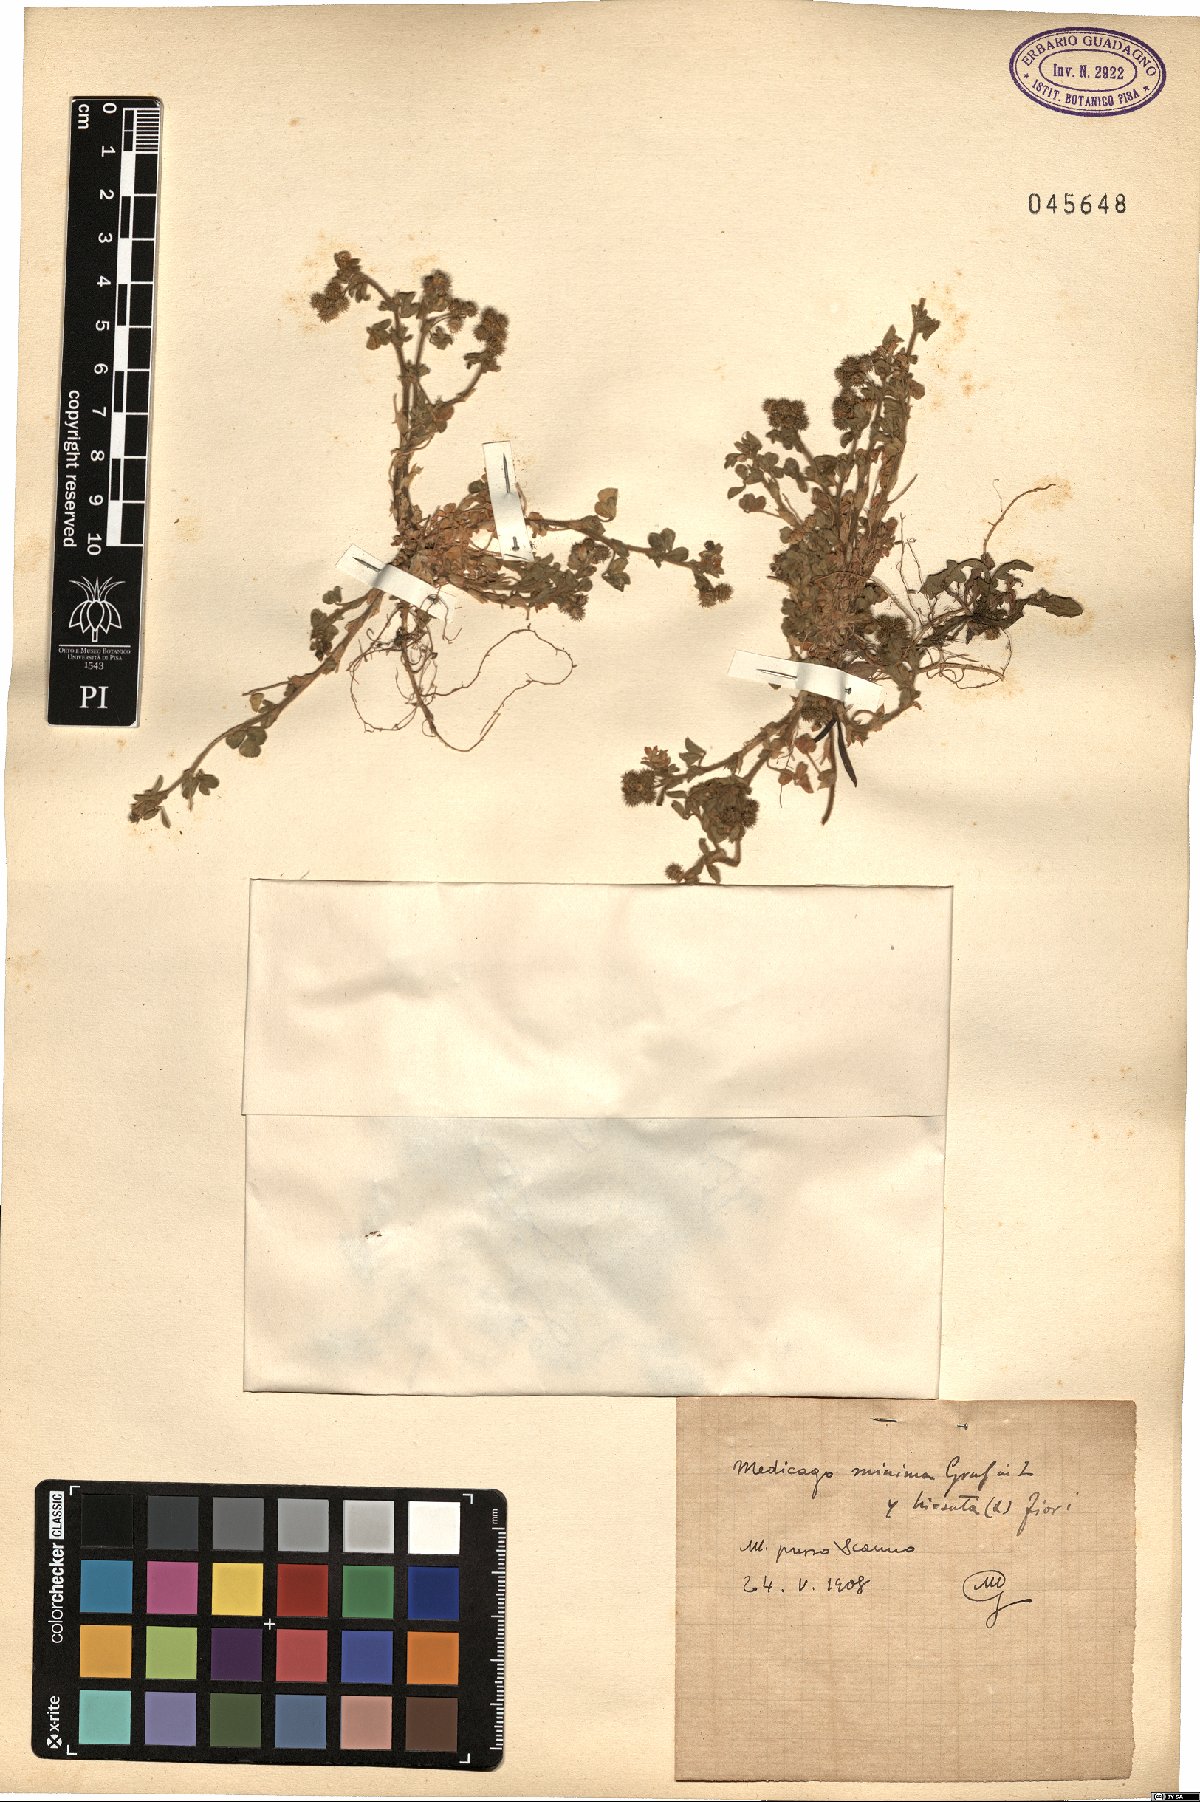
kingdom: Plantae
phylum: Tracheophyta
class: Magnoliopsida
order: Fabales
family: Fabaceae
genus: Medicago
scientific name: Medicago minima
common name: Little bur-clover
